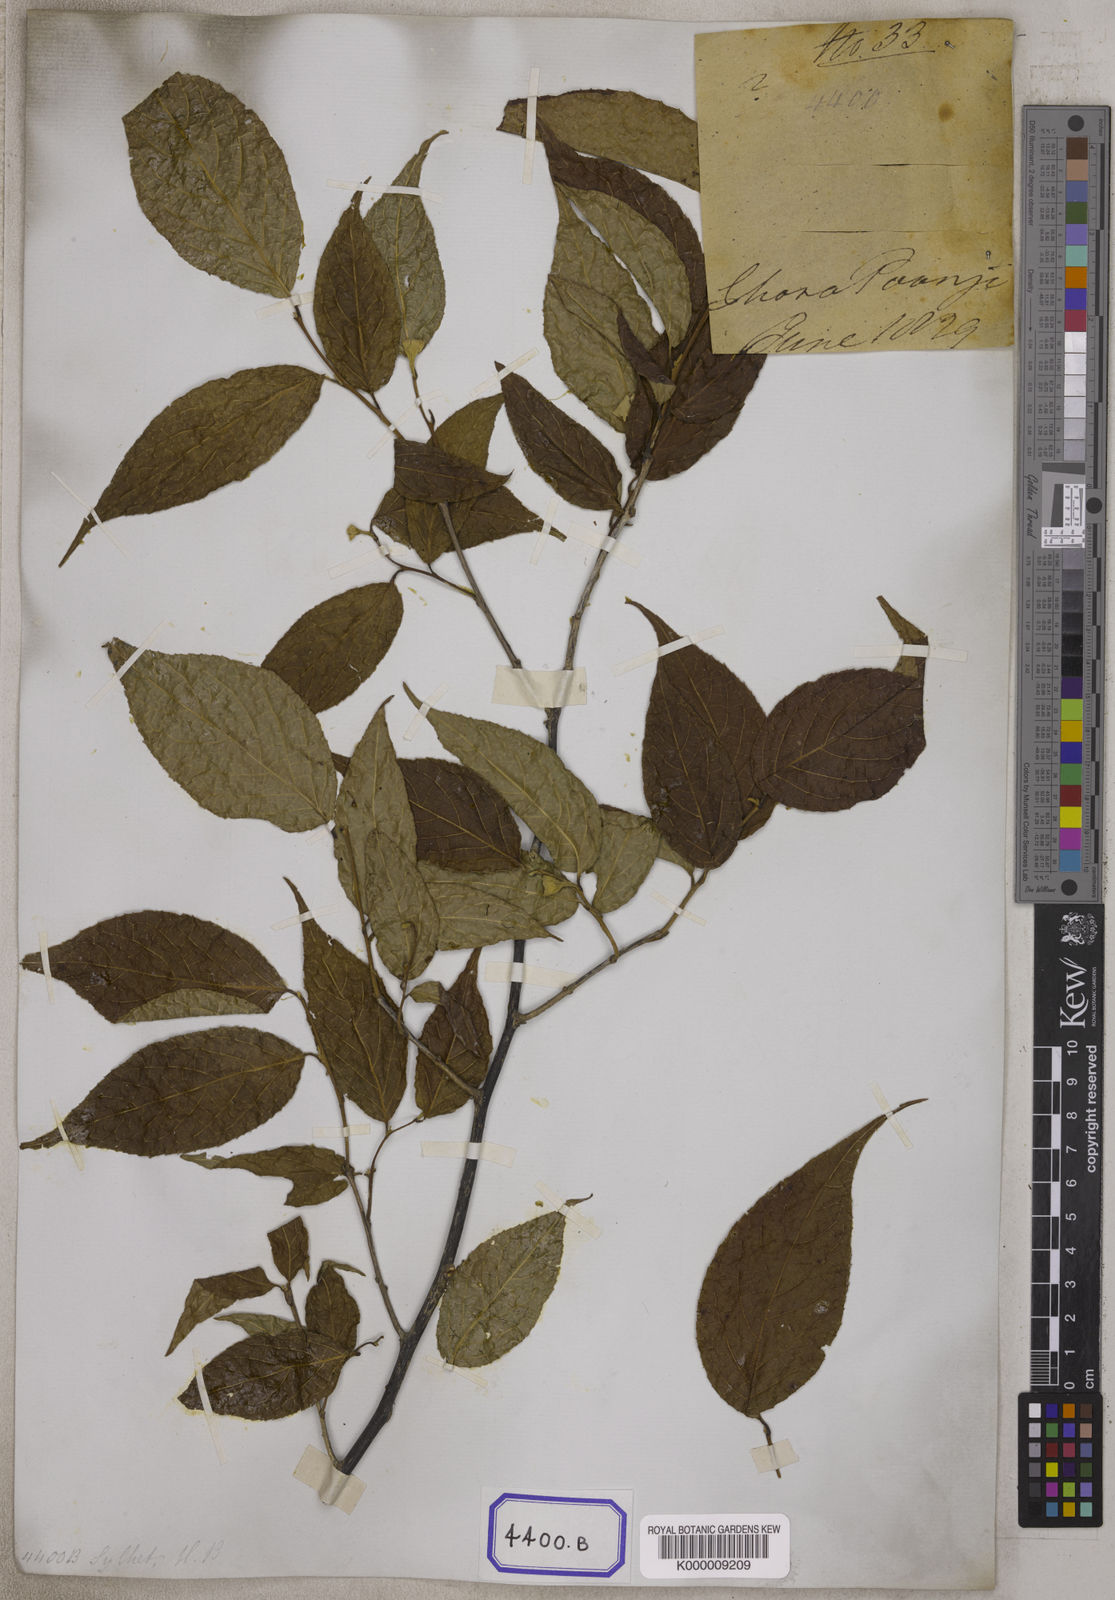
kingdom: Plantae
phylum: Tracheophyta
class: Magnoliopsida
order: Ericales
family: Styracaceae
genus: Styrax
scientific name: Styrax
